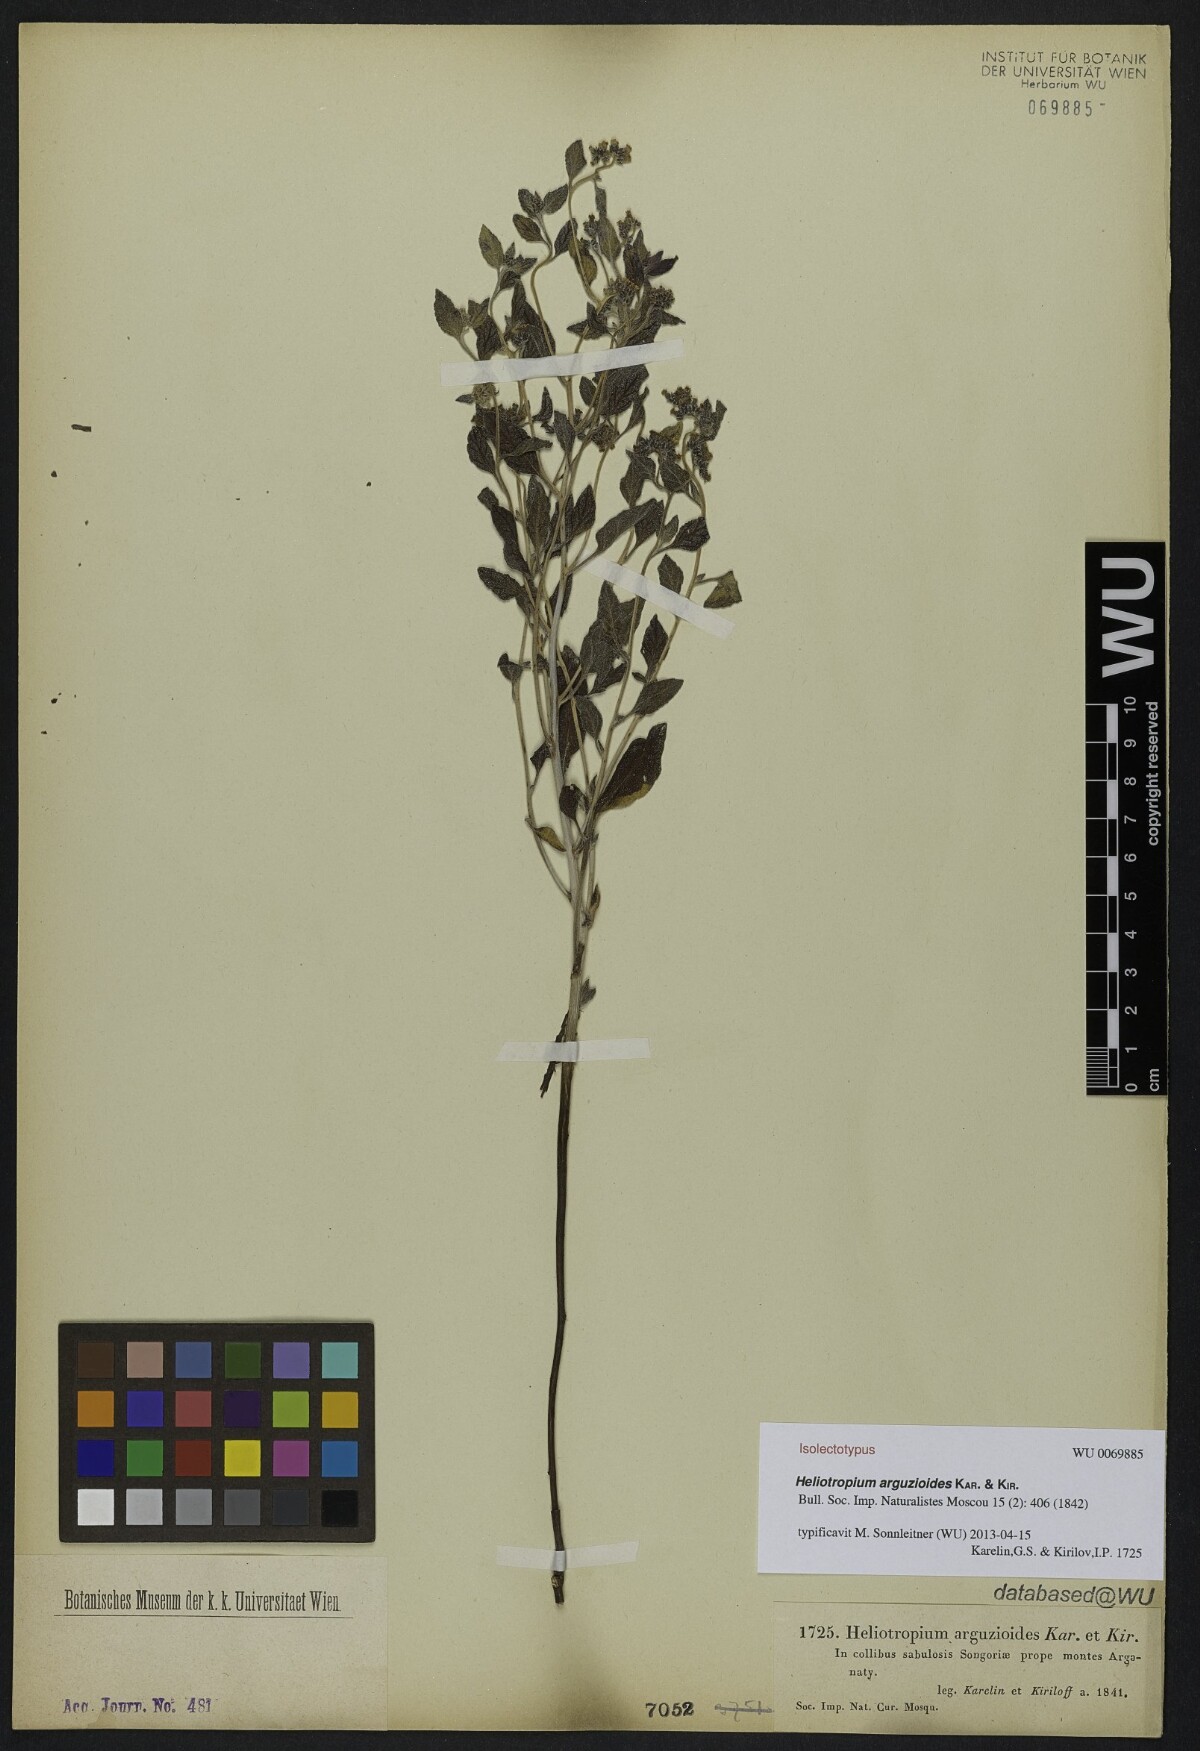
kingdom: Plantae
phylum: Tracheophyta
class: Magnoliopsida
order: Boraginales
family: Heliotropiaceae
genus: Heliotropium
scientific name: Heliotropium arguzioides
